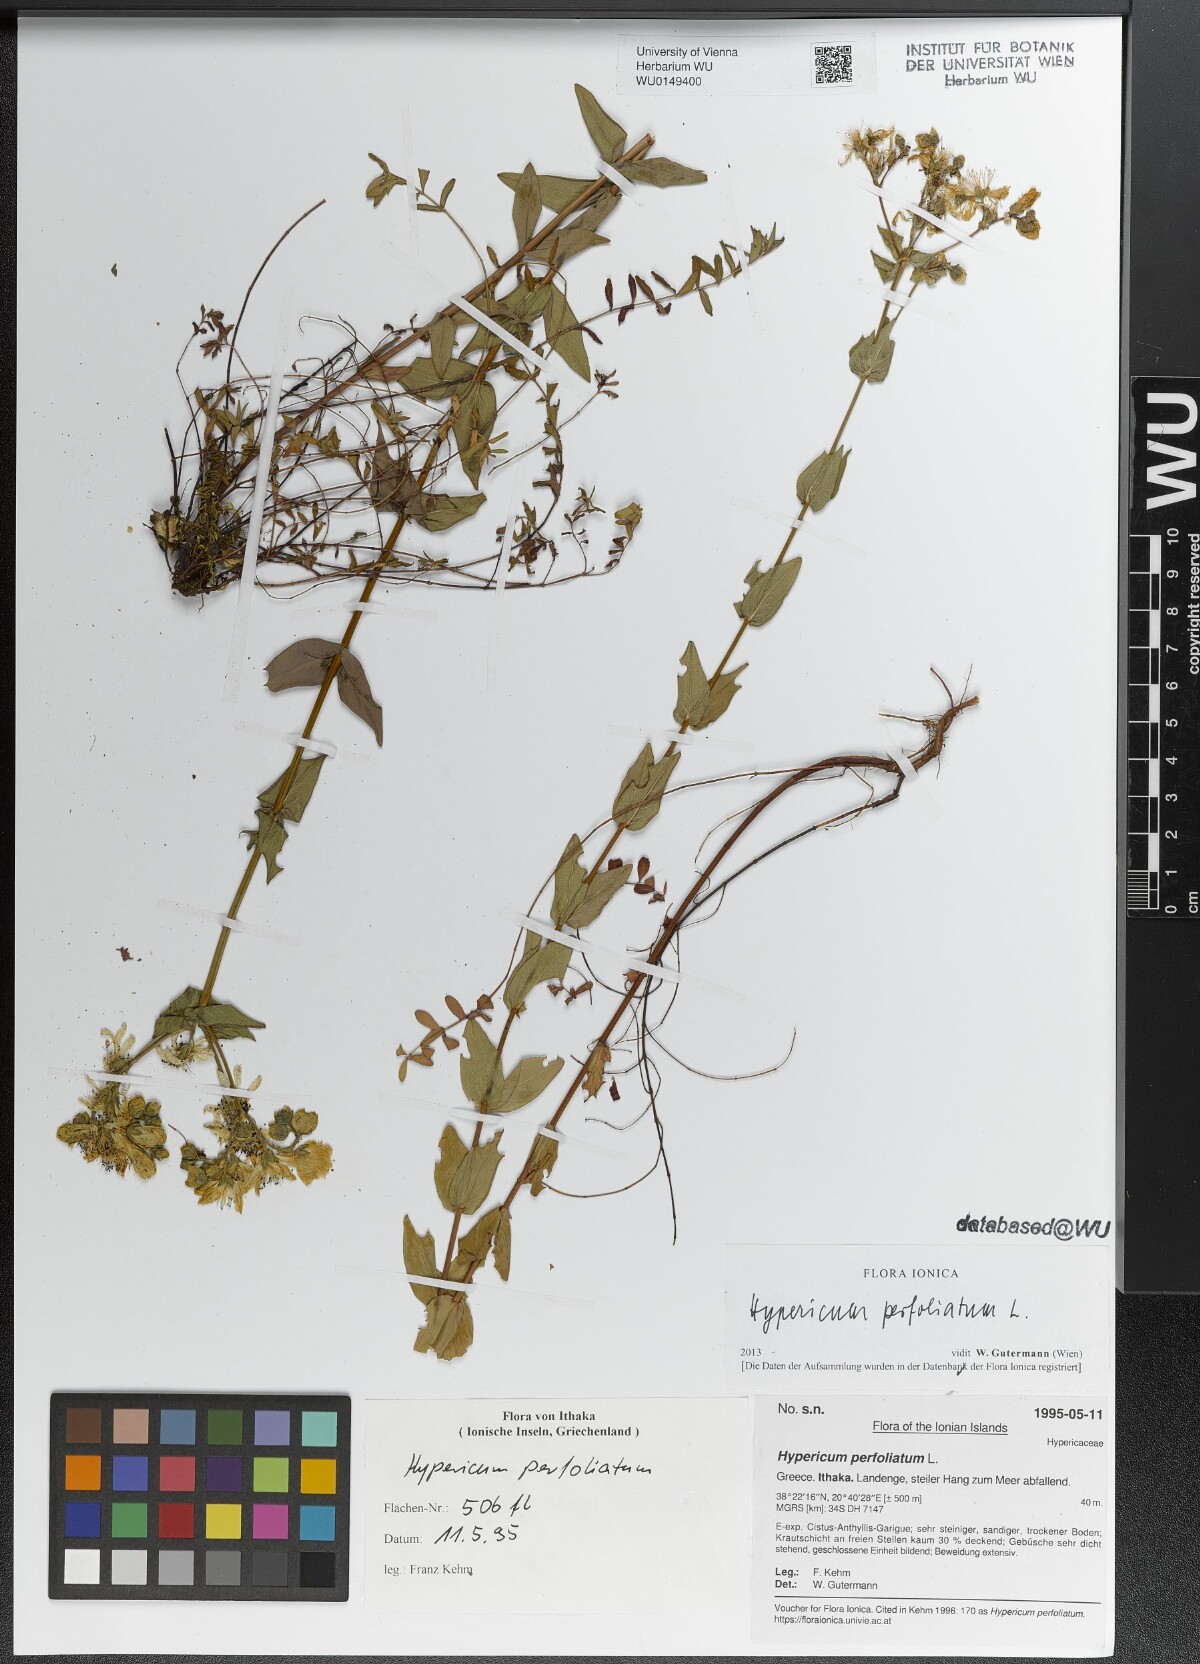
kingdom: Plantae
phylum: Tracheophyta
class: Magnoliopsida
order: Malpighiales
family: Hypericaceae
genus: Hypericum
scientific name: Hypericum perfoliatum
